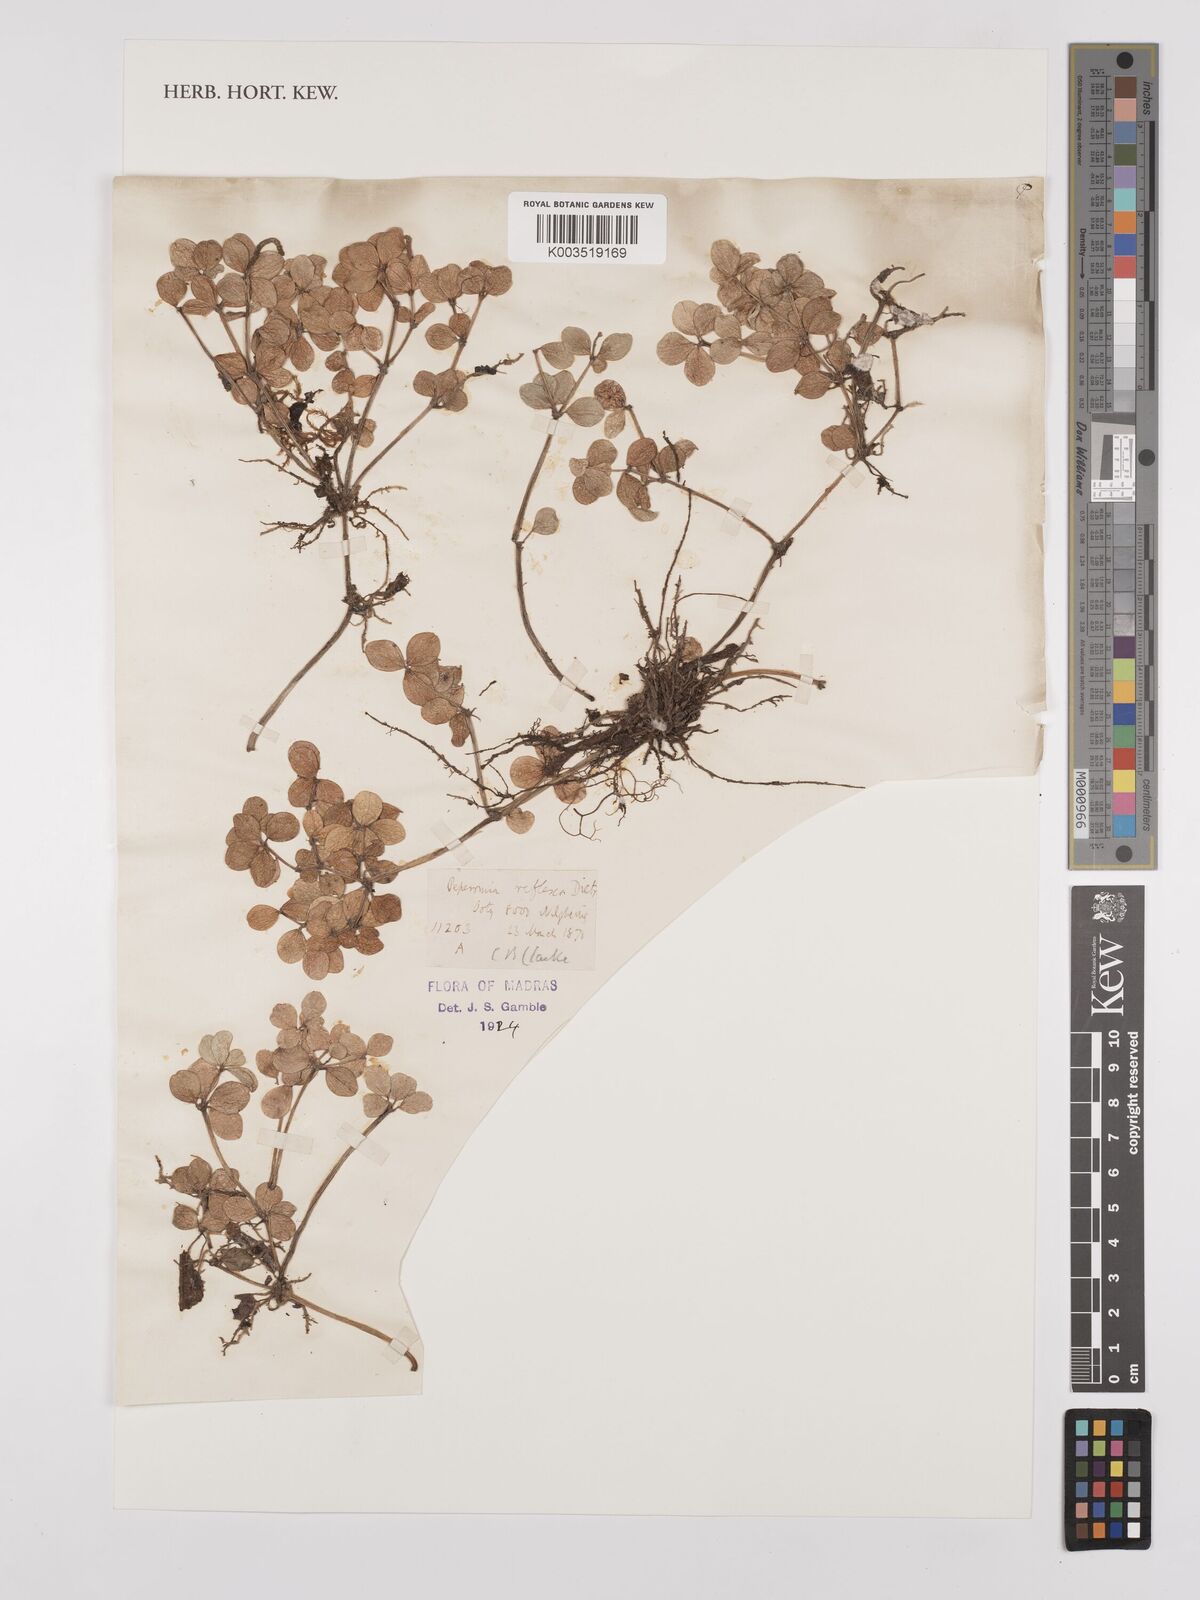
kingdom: Plantae
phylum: Tracheophyta
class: Magnoliopsida
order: Piperales
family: Piperaceae
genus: Peperomia
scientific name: Peperomia tetraphylla
